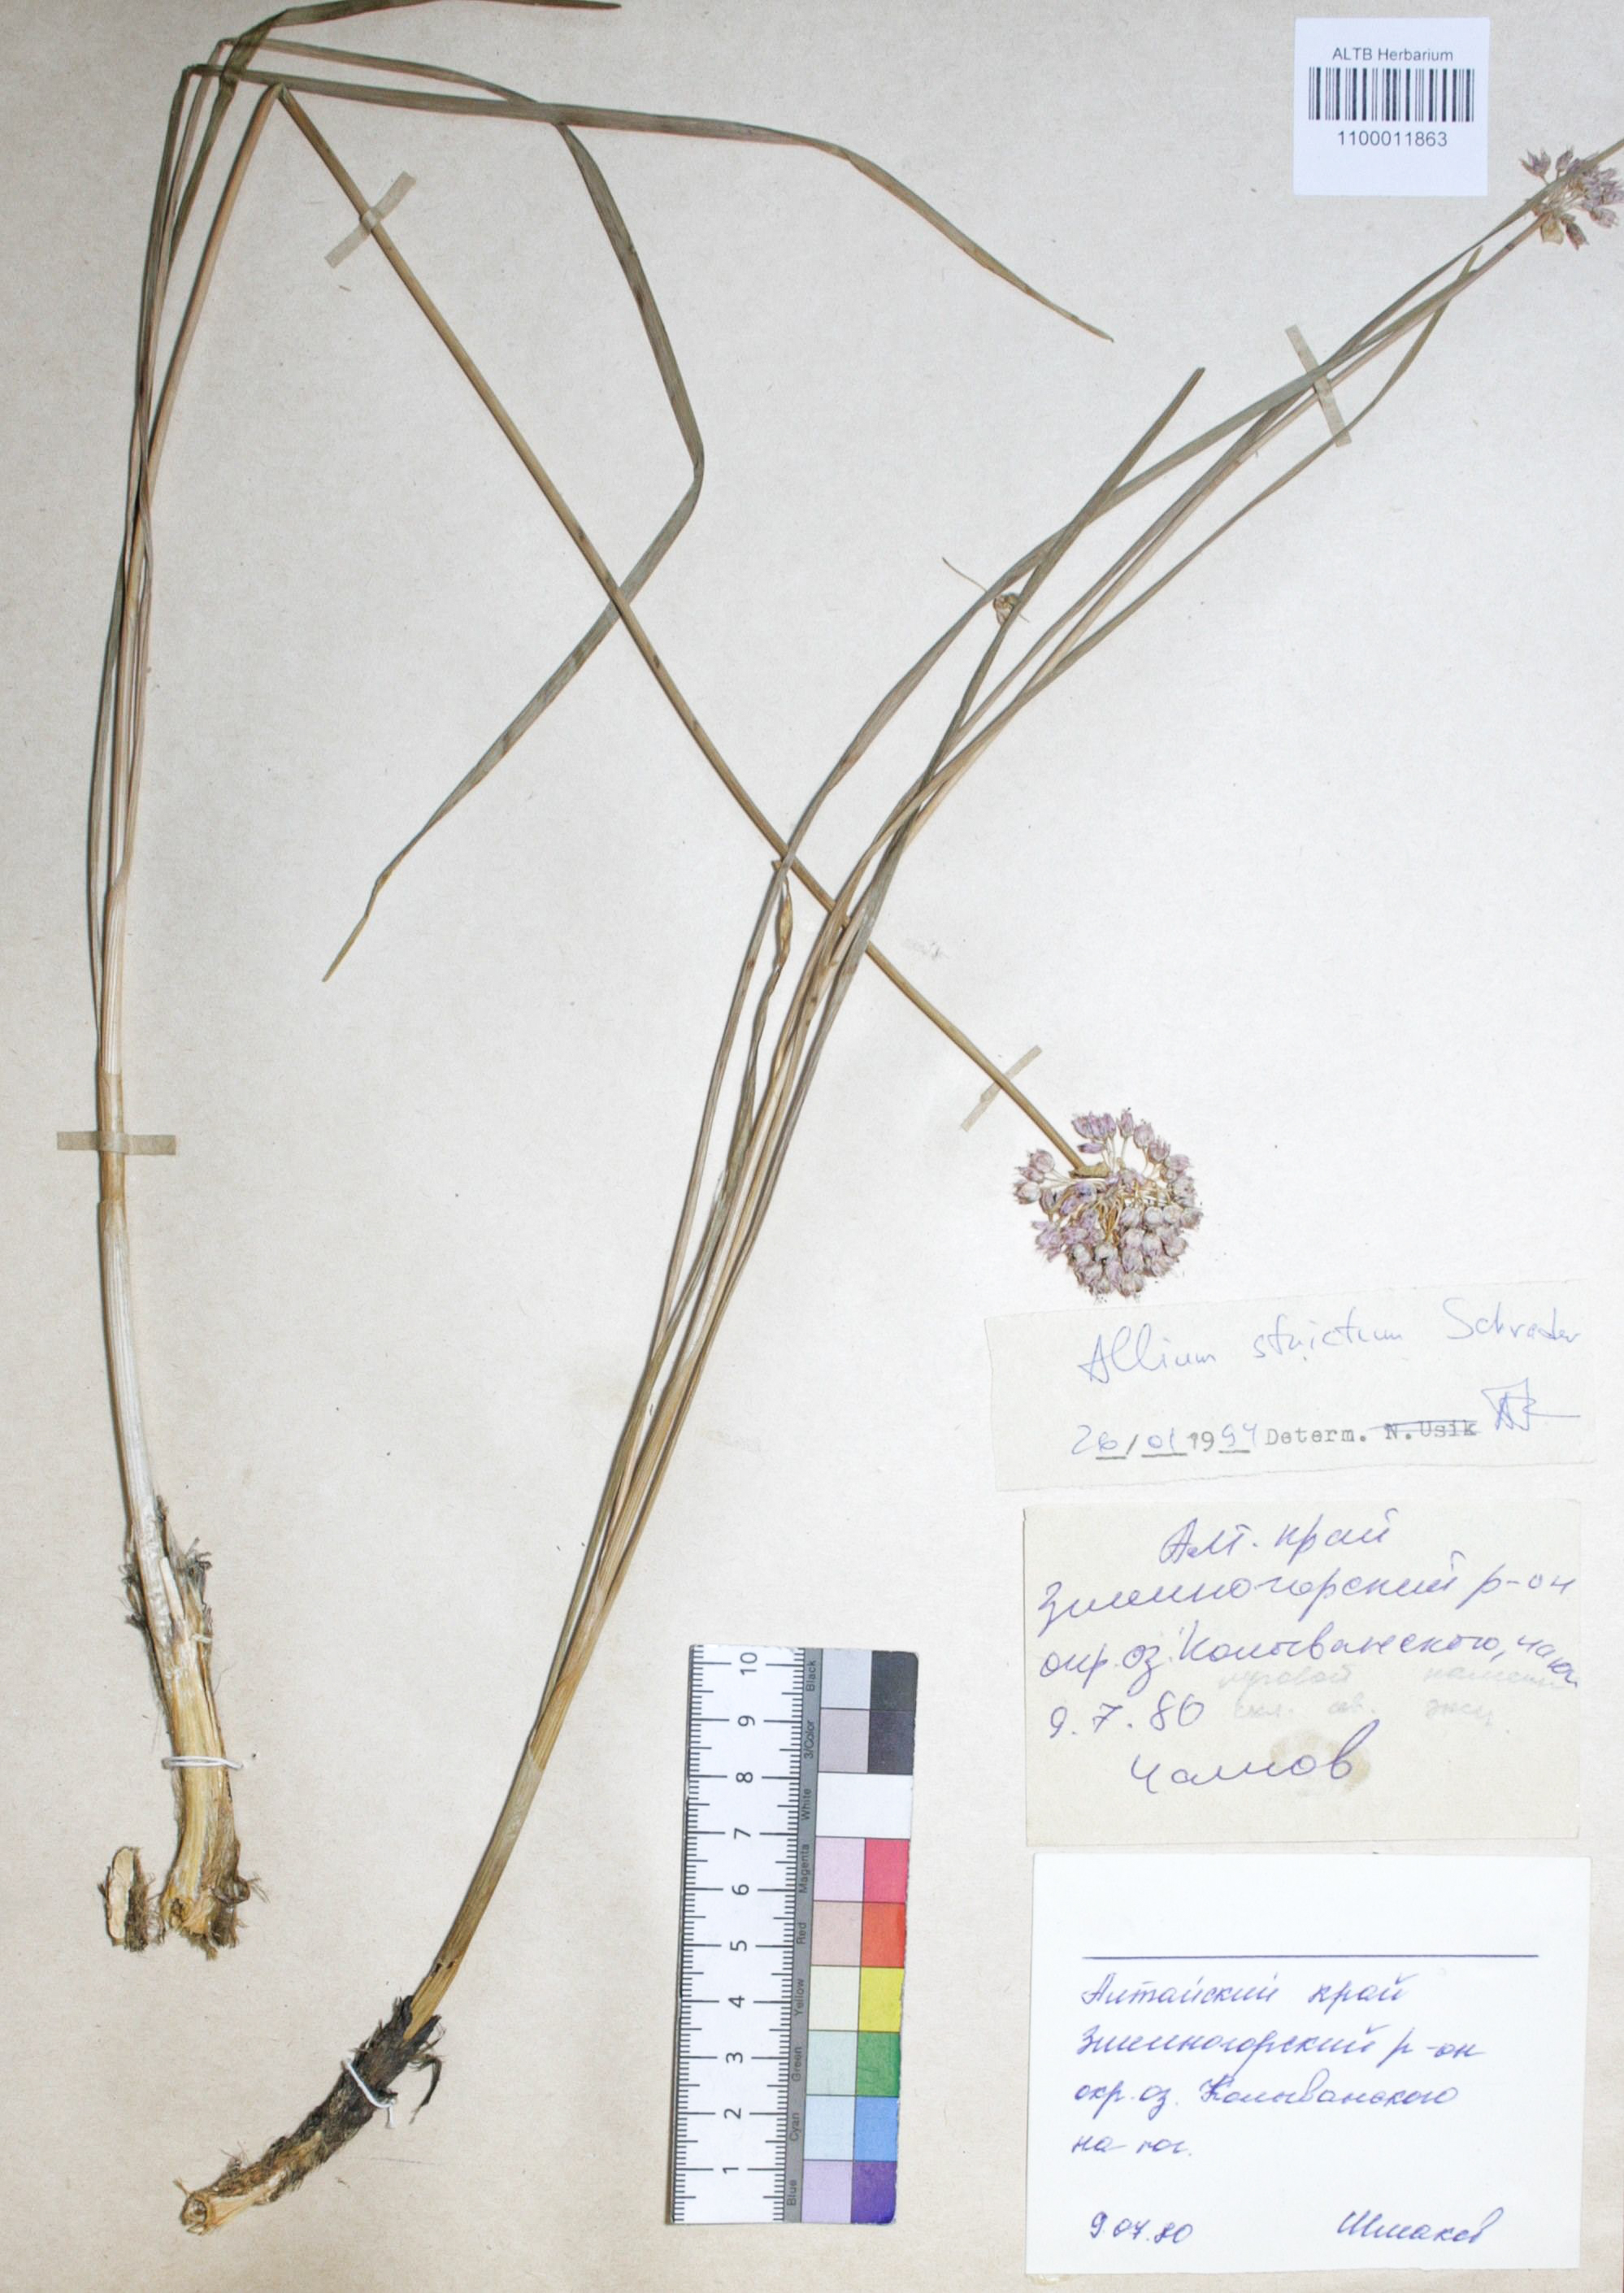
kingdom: Plantae
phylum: Tracheophyta
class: Liliopsida
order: Asparagales
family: Amaryllidaceae
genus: Allium
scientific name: Allium strictum
